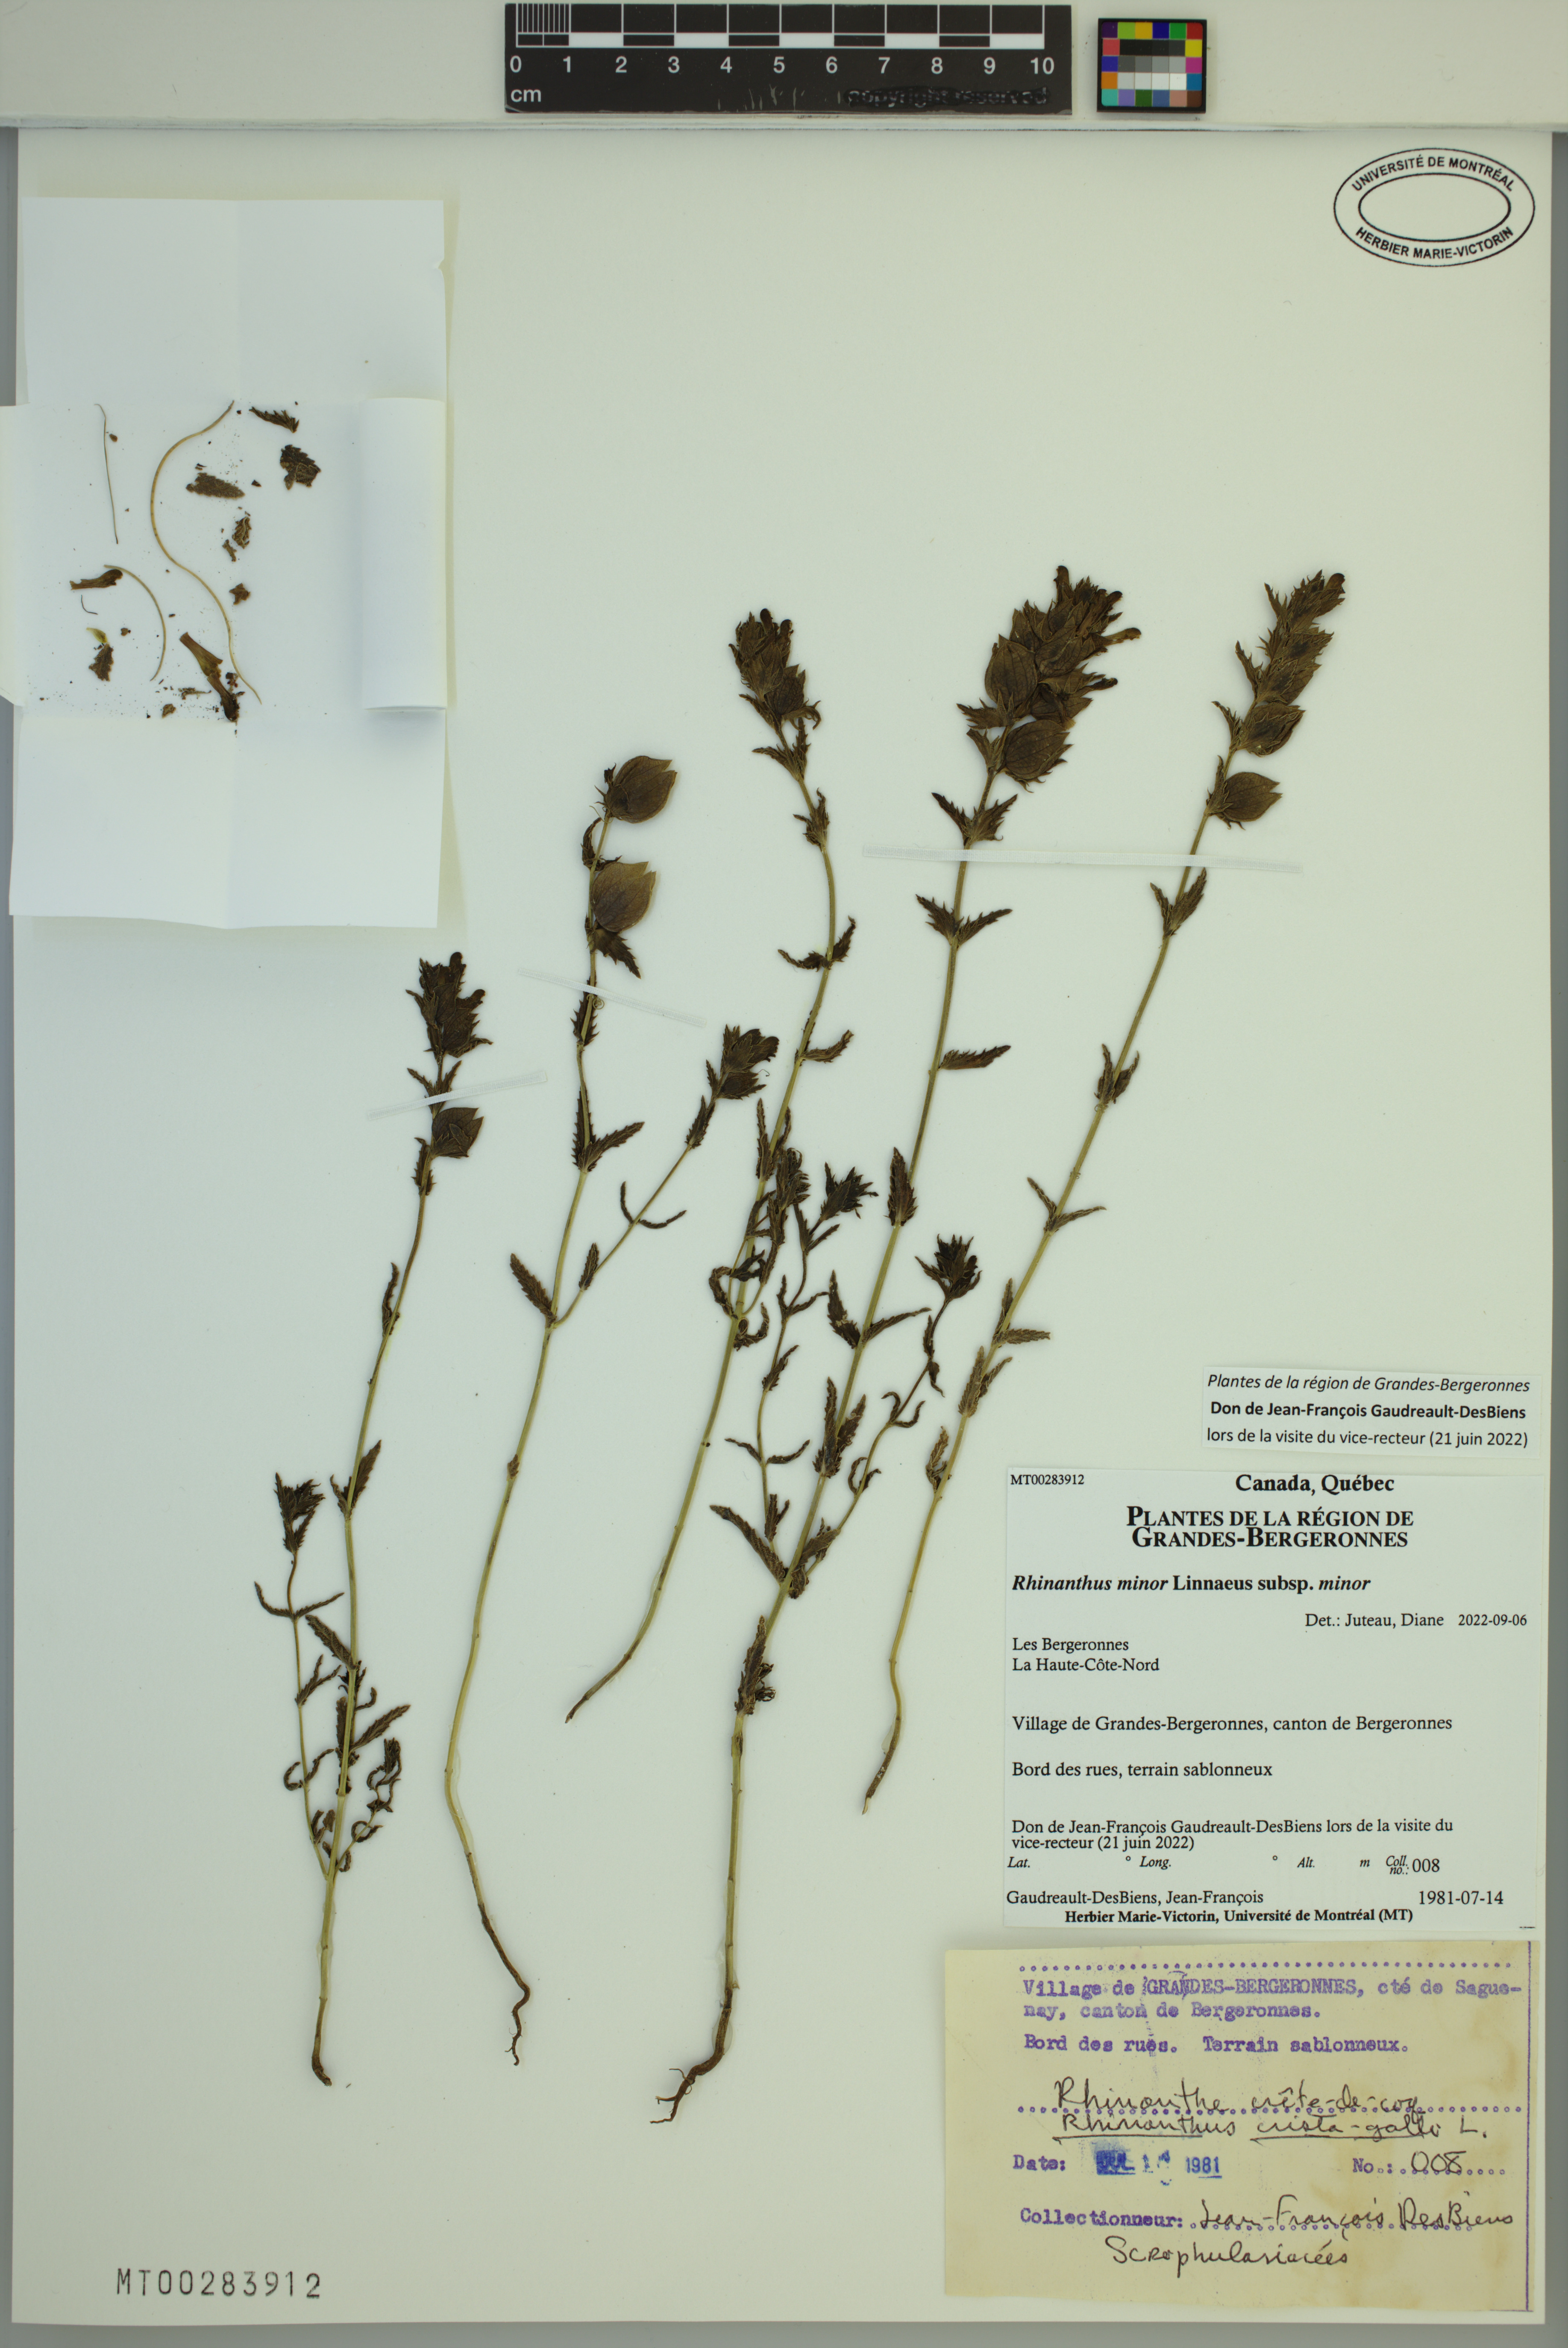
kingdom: Plantae
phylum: Tracheophyta
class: Magnoliopsida
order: Lamiales
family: Orobanchaceae
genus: Rhinanthus
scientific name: Rhinanthus minor
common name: Yellow-rattle
